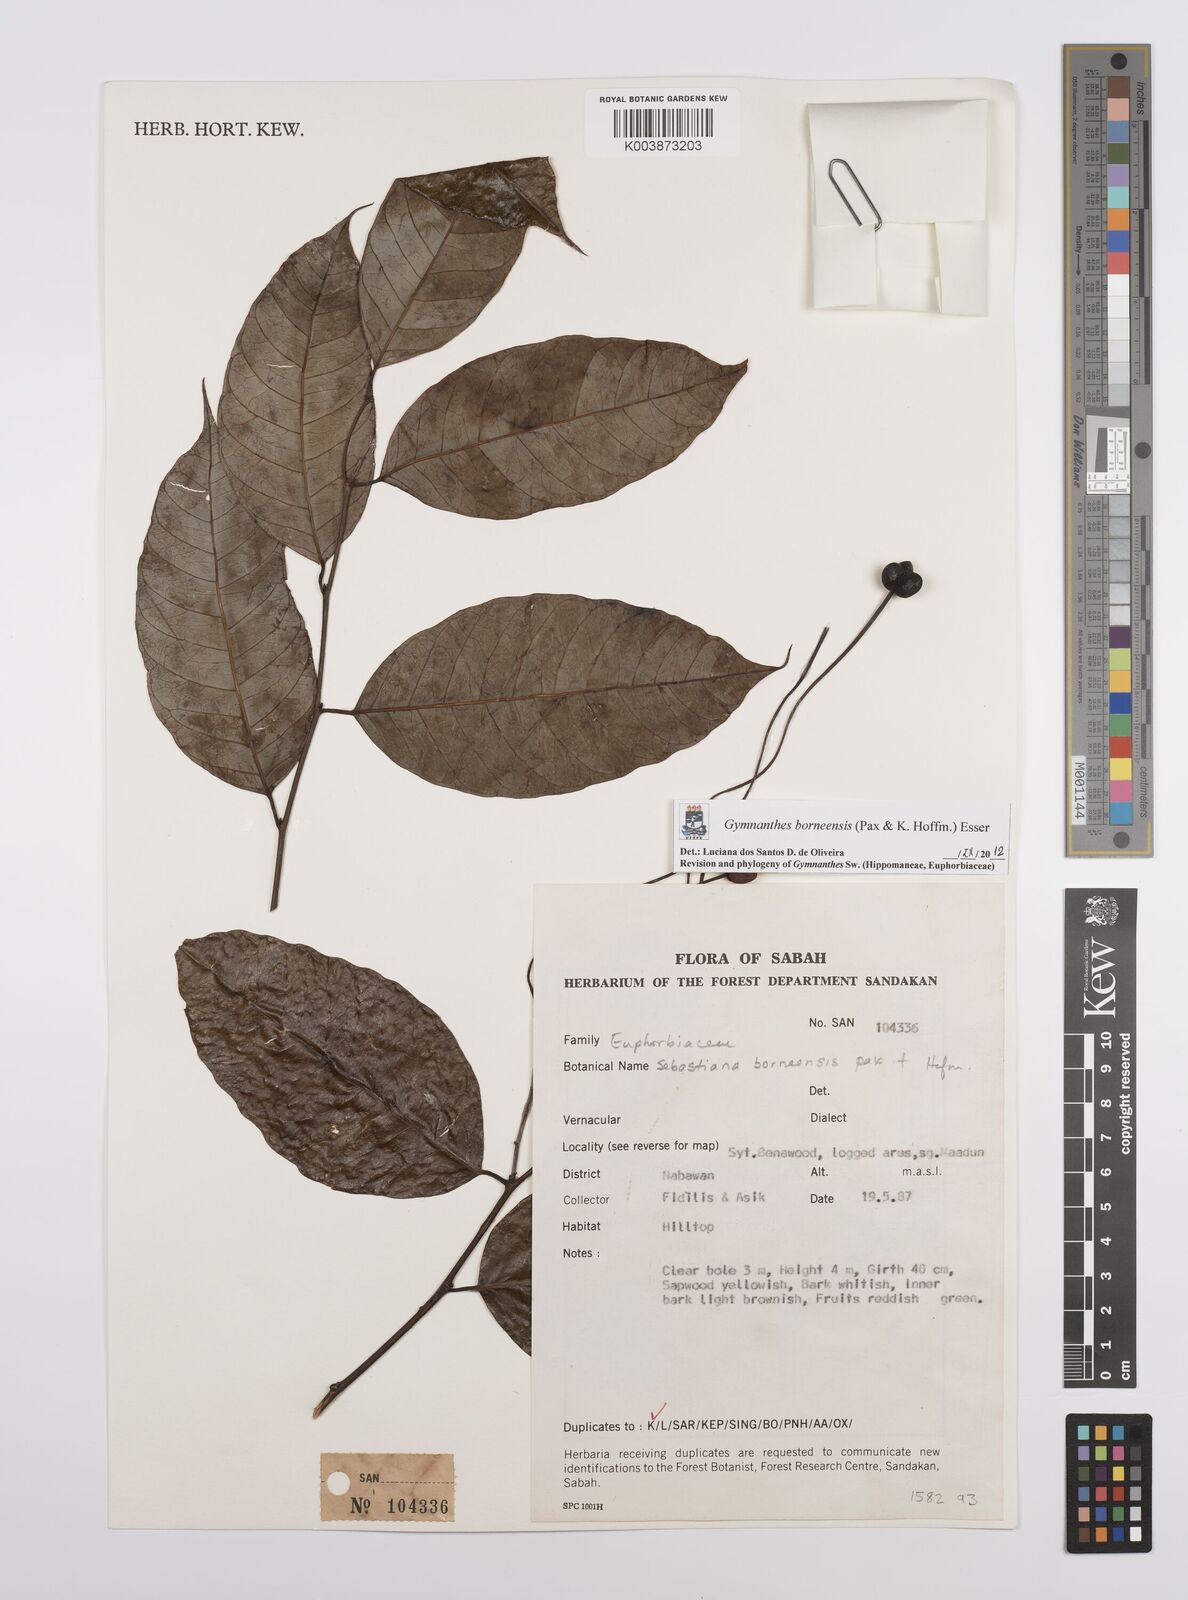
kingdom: Plantae
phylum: Tracheophyta
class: Magnoliopsida
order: Malpighiales
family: Euphorbiaceae
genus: Gymnanthes
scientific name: Gymnanthes borneensis
